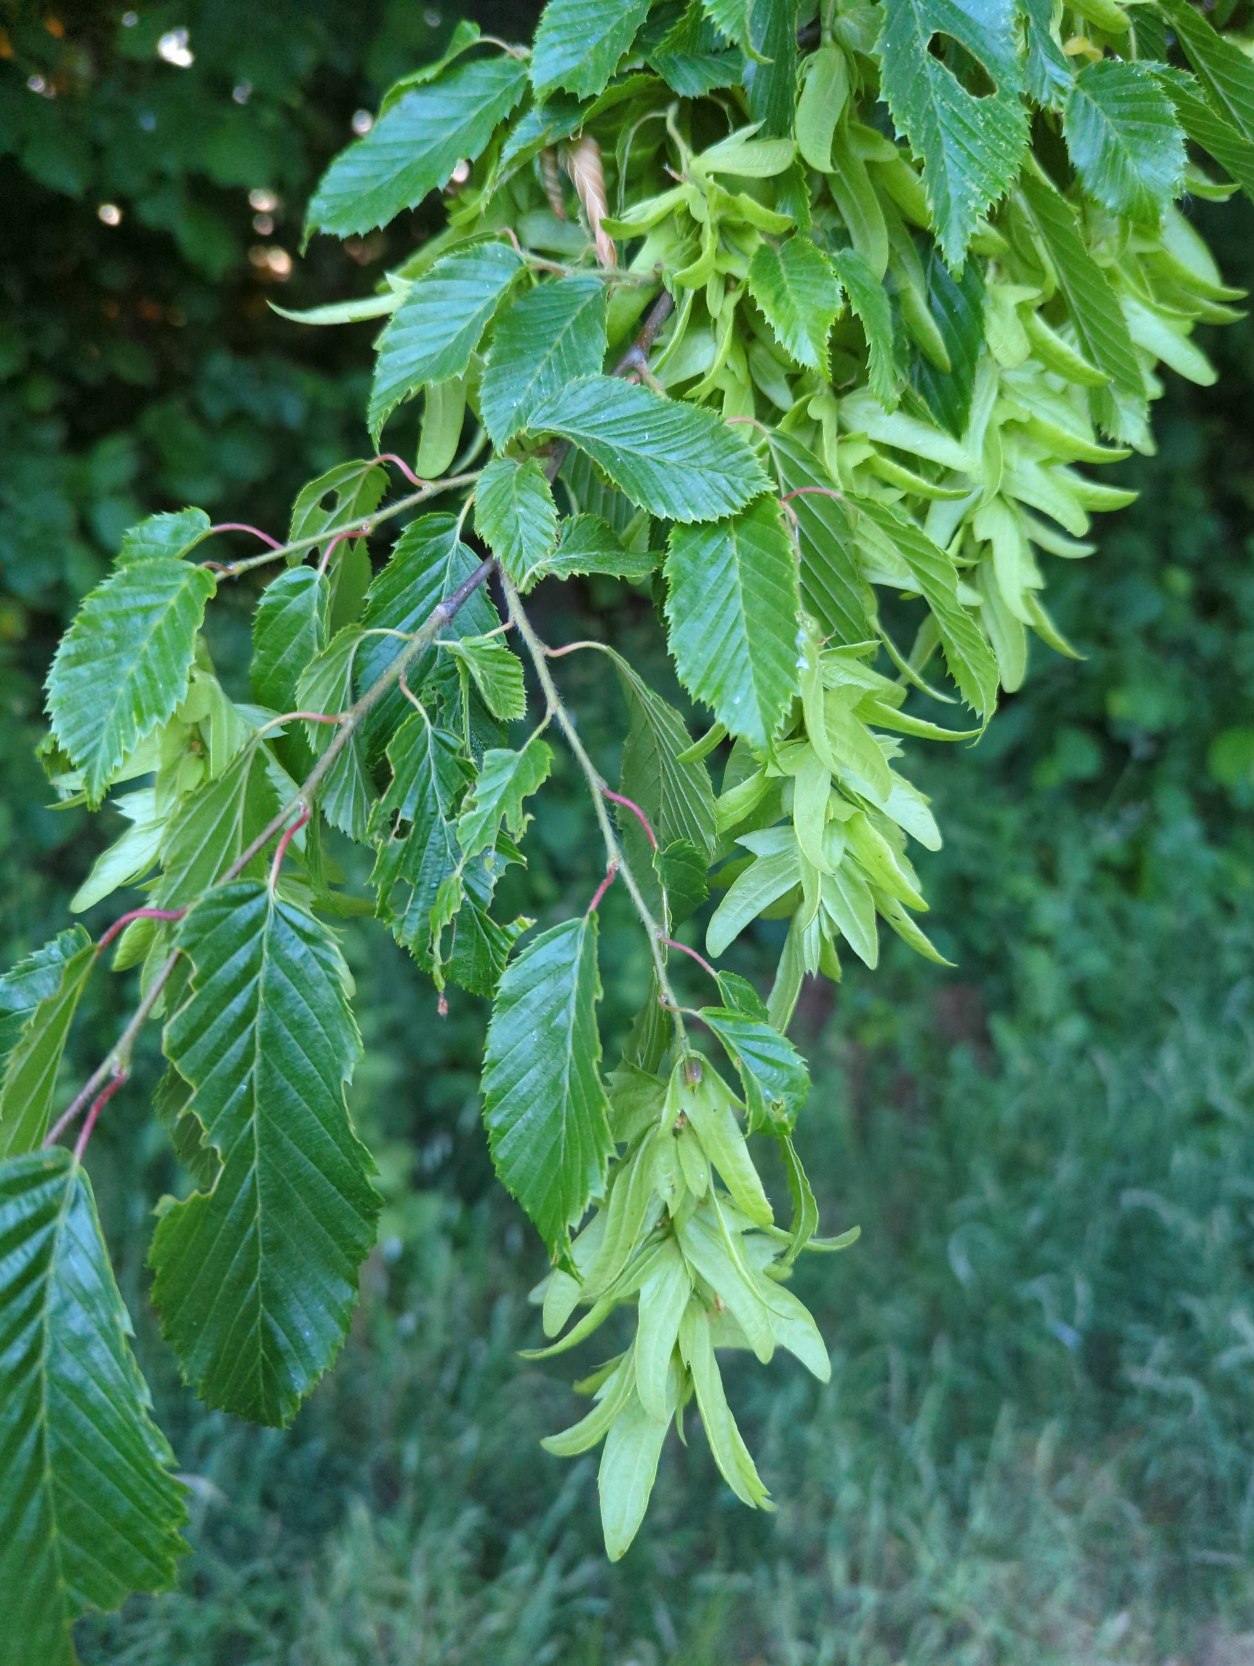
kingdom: Plantae
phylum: Tracheophyta
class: Magnoliopsida
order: Fagales
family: Betulaceae
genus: Carpinus
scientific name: Carpinus betulus
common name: Avnbøg
